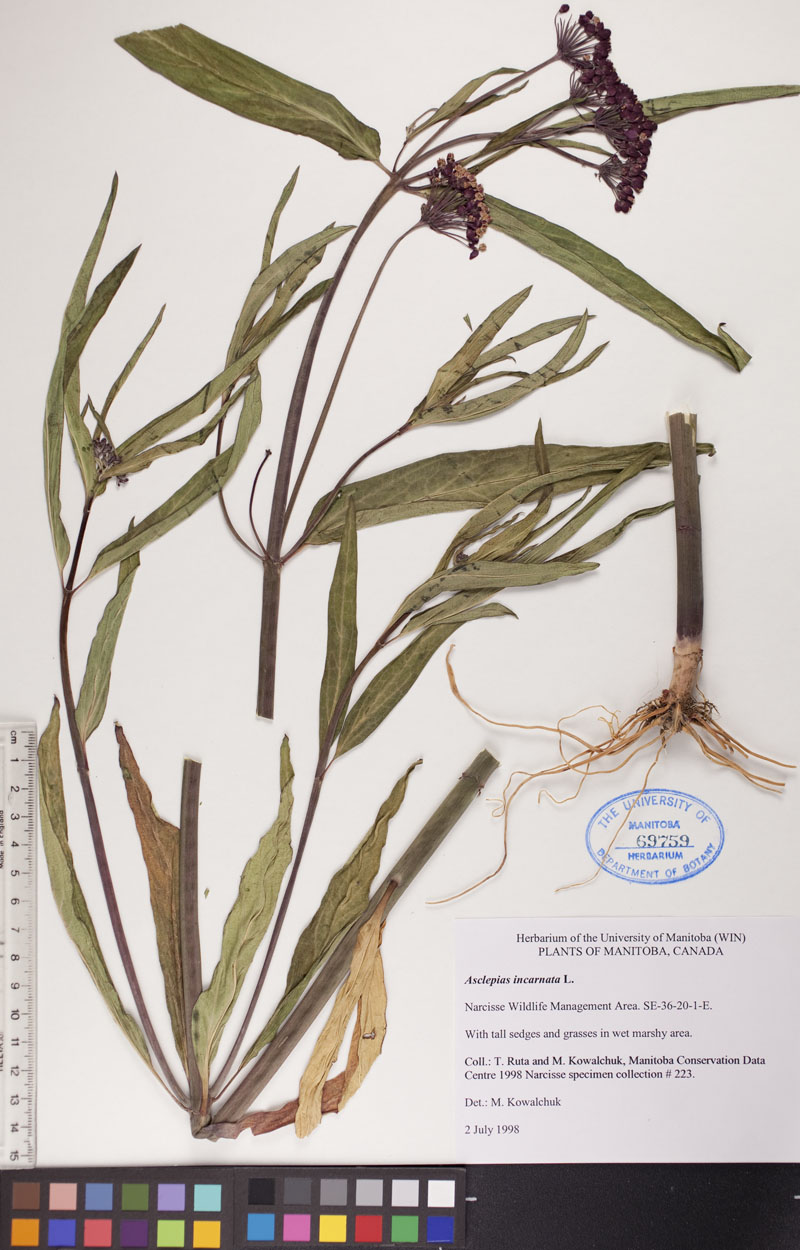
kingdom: Plantae
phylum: Tracheophyta
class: Magnoliopsida
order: Gentianales
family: Apocynaceae
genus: Asclepias
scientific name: Asclepias incarnata
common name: Swamp milkweed
